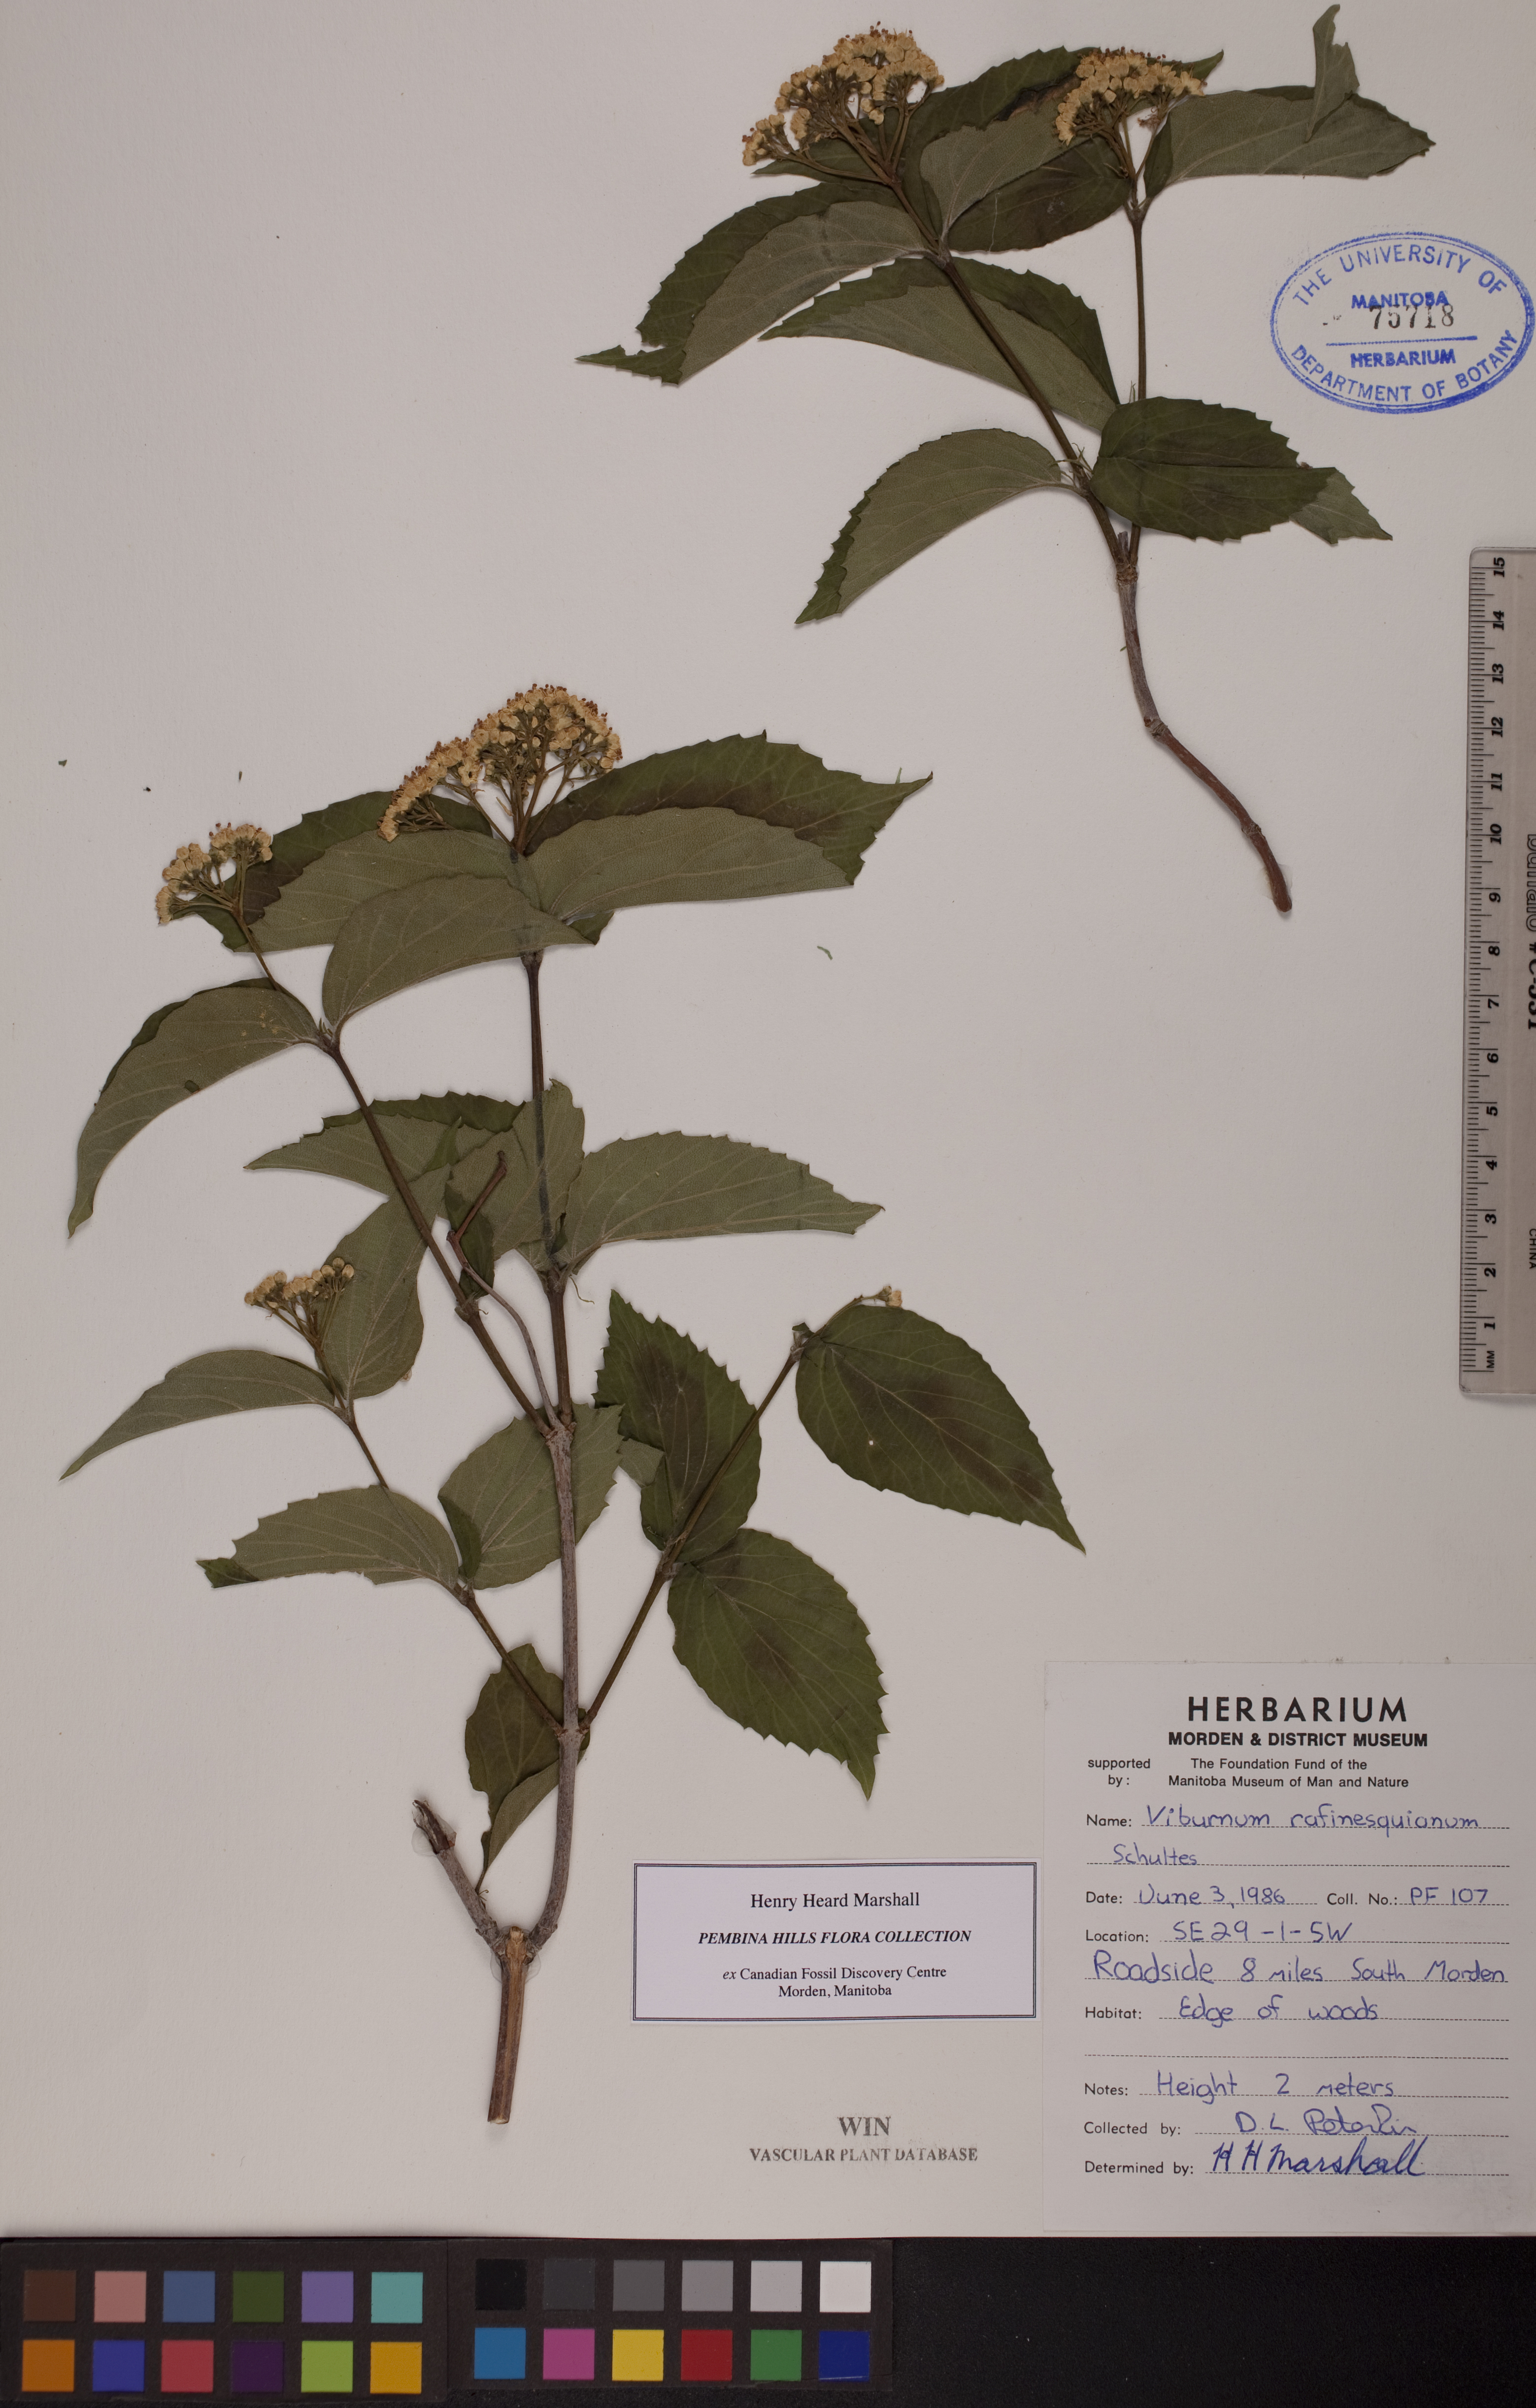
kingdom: Plantae
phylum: Tracheophyta
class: Magnoliopsida
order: Dipsacales
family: Viburnaceae
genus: Viburnum
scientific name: Viburnum rafinesquianum
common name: Downy arrow-wood
